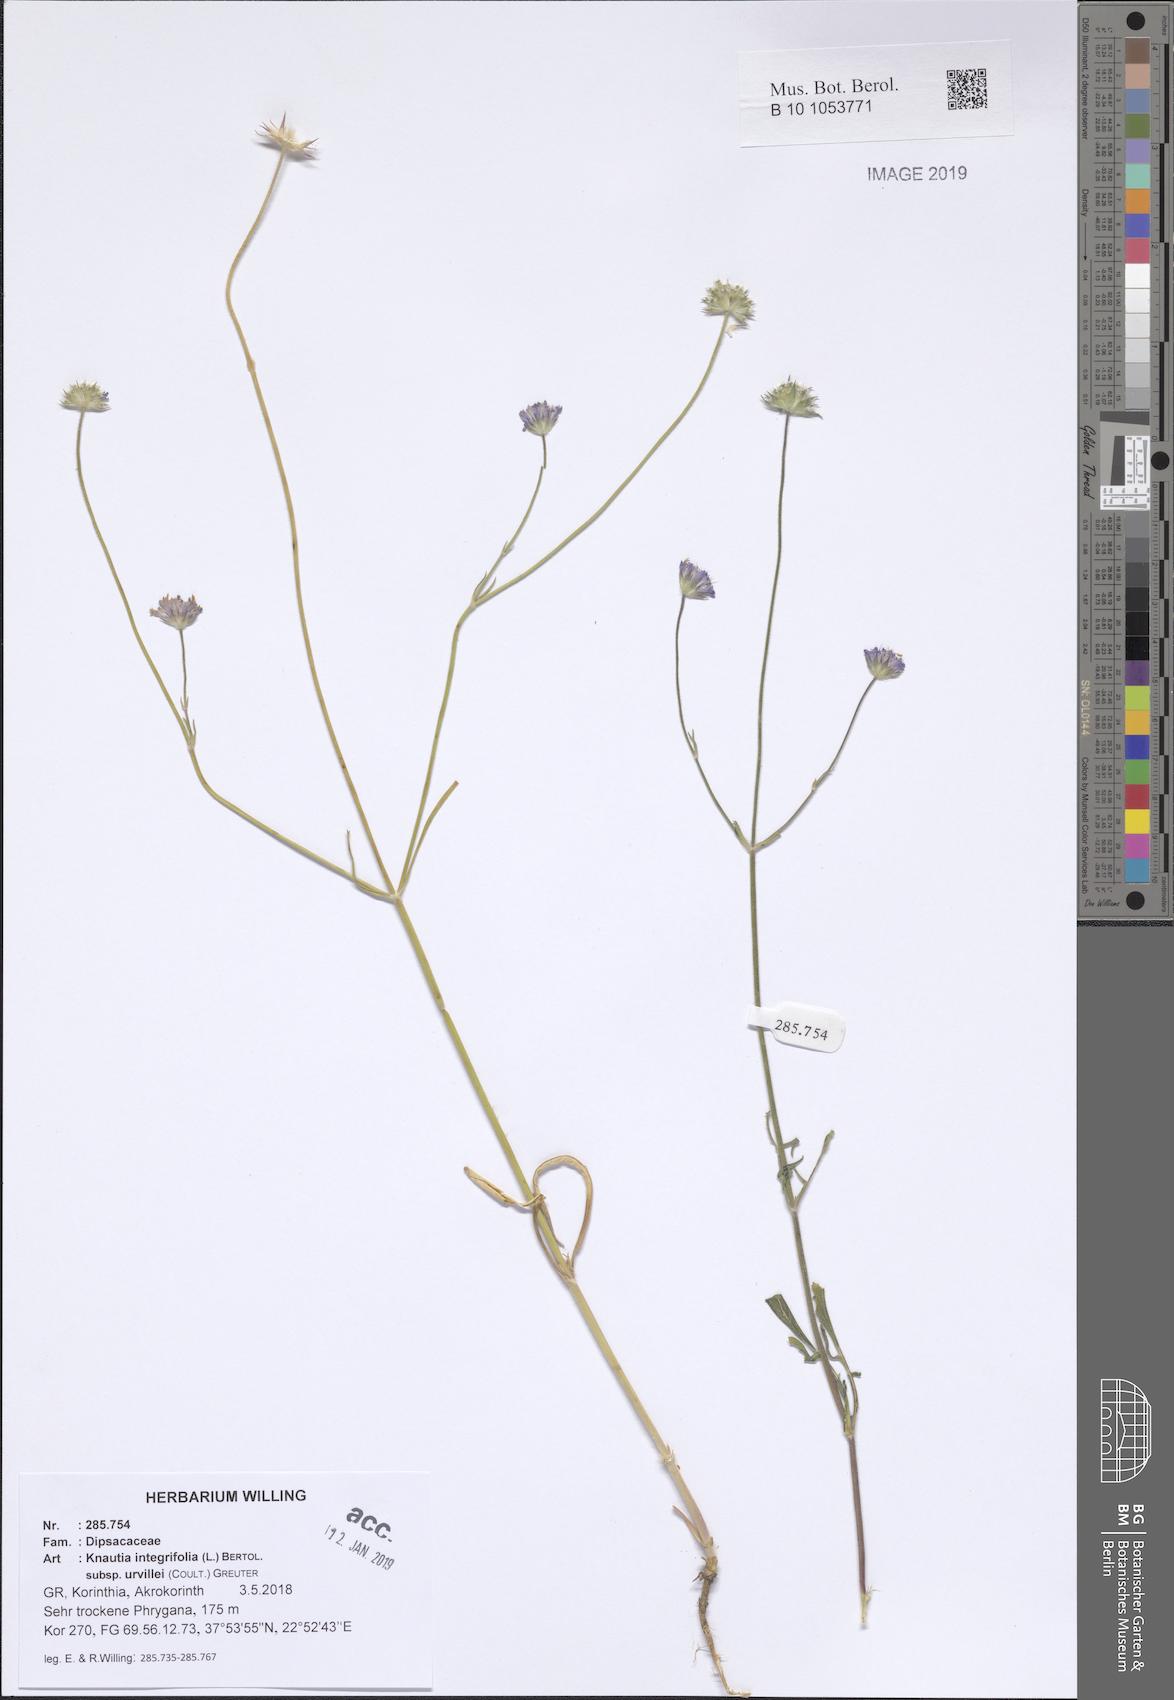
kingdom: Plantae
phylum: Tracheophyta
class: Magnoliopsida
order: Dipsacales
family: Caprifoliaceae
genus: Knautia
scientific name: Knautia integrifolia
